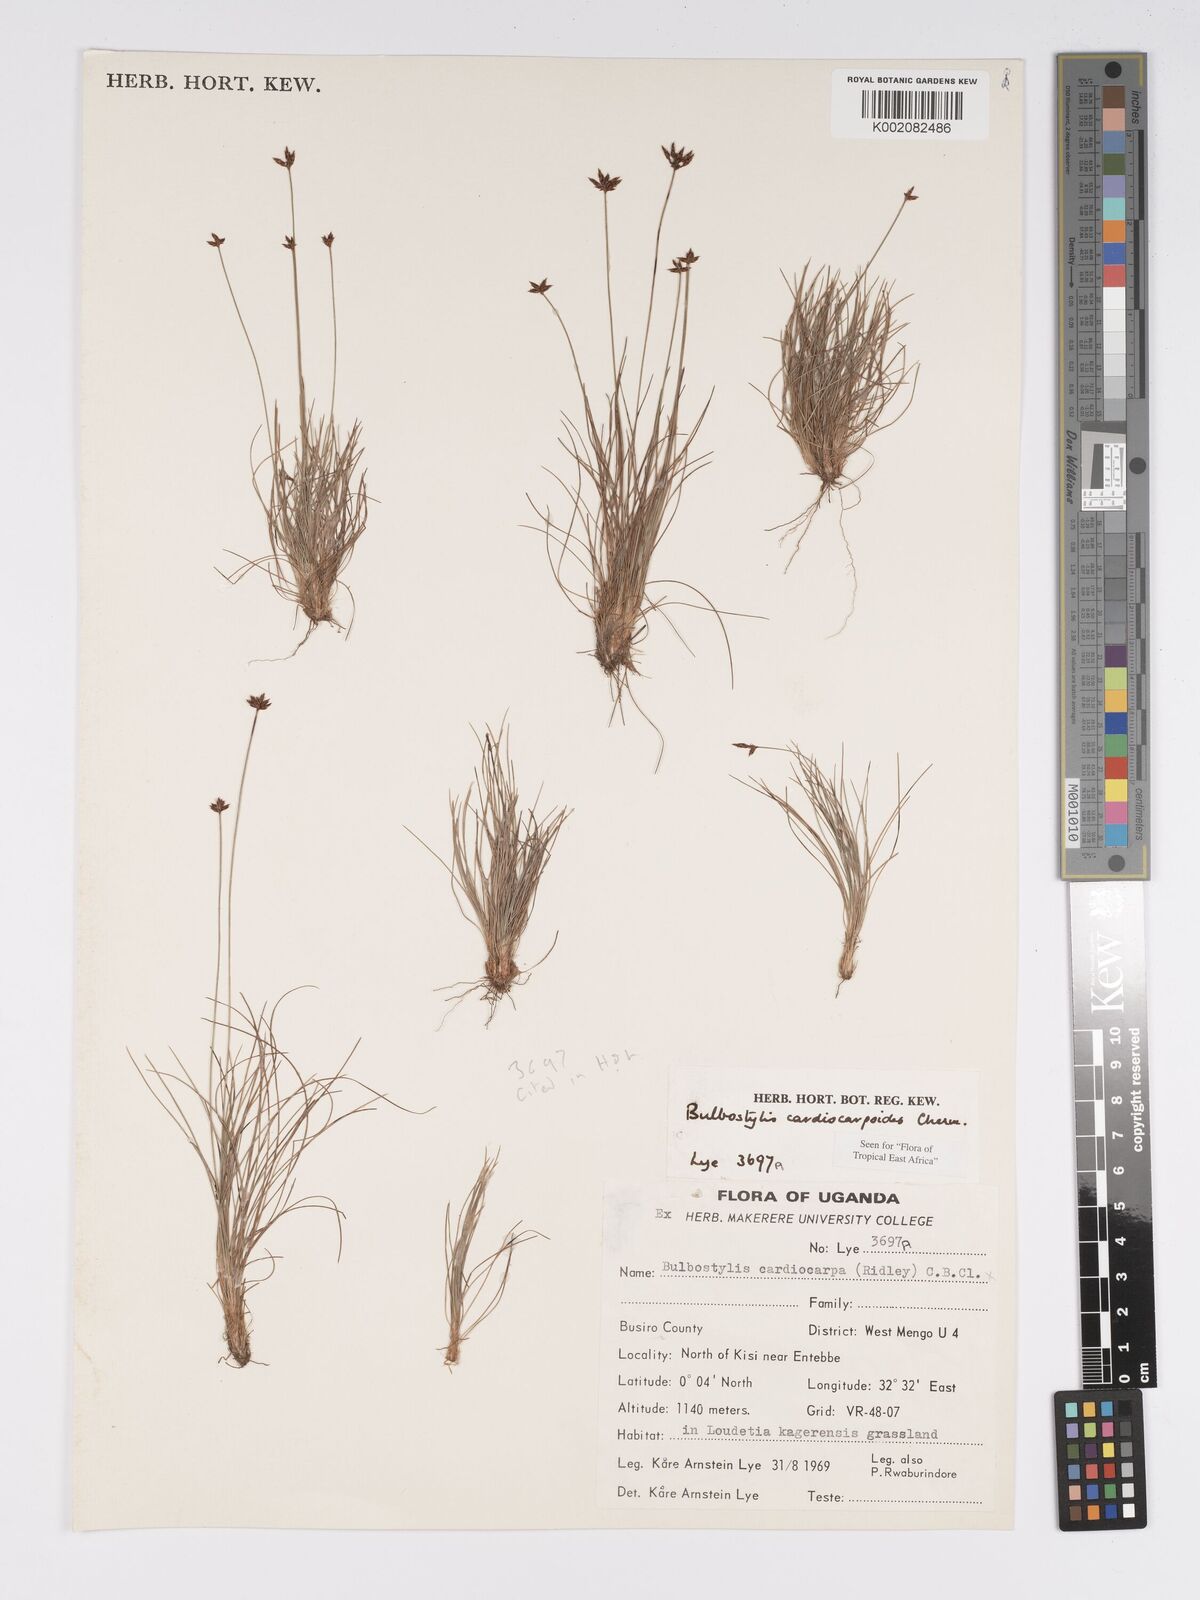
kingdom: Plantae
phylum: Tracheophyta
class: Liliopsida
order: Poales
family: Cyperaceae
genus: Bulbostylis
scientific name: Bulbostylis cardiocarpoides
